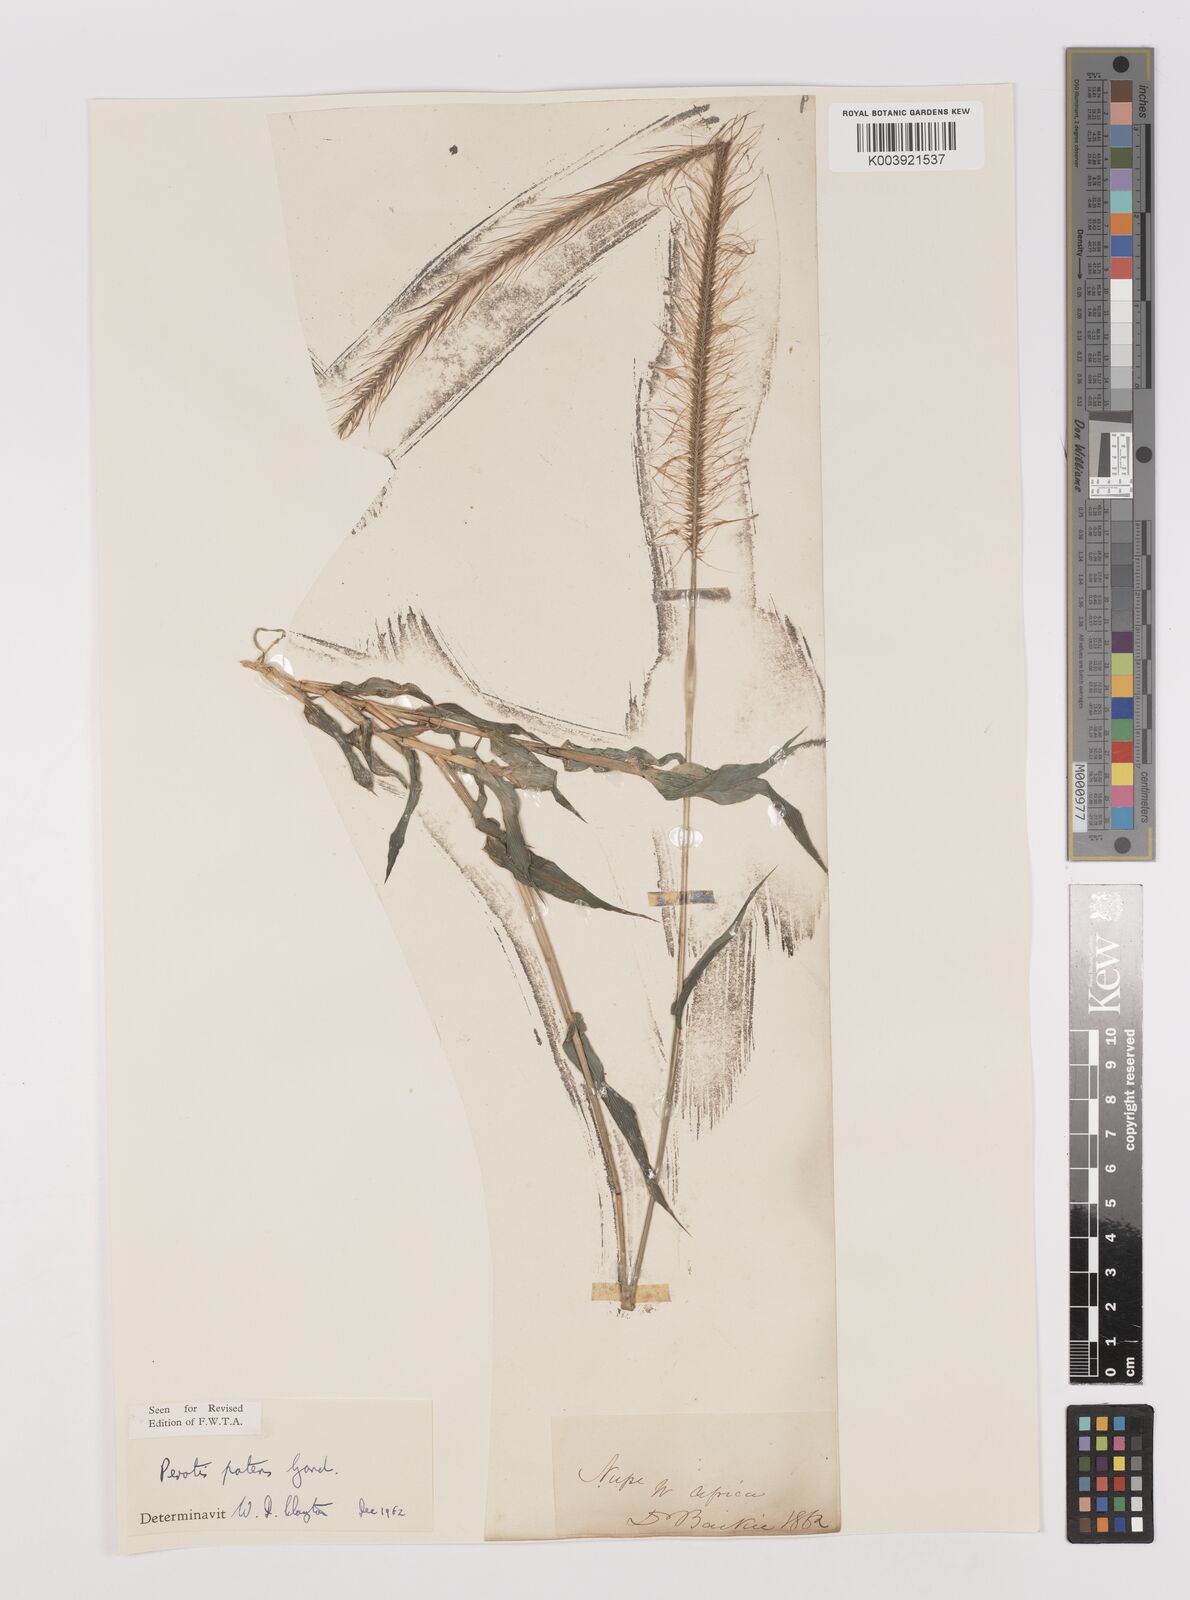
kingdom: Plantae
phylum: Tracheophyta
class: Liliopsida
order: Poales
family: Poaceae
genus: Perotis
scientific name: Perotis patens
